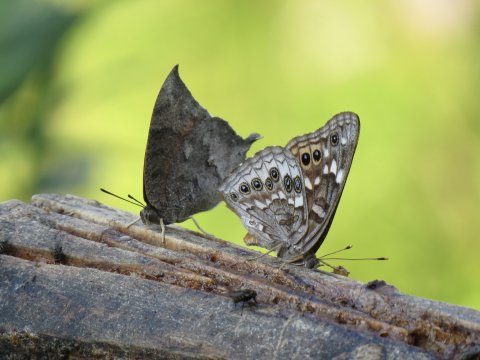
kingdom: Animalia
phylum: Arthropoda
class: Insecta
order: Lepidoptera
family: Nymphalidae
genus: Anaea
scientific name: Anaea aidea
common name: Tropical Leafwing
